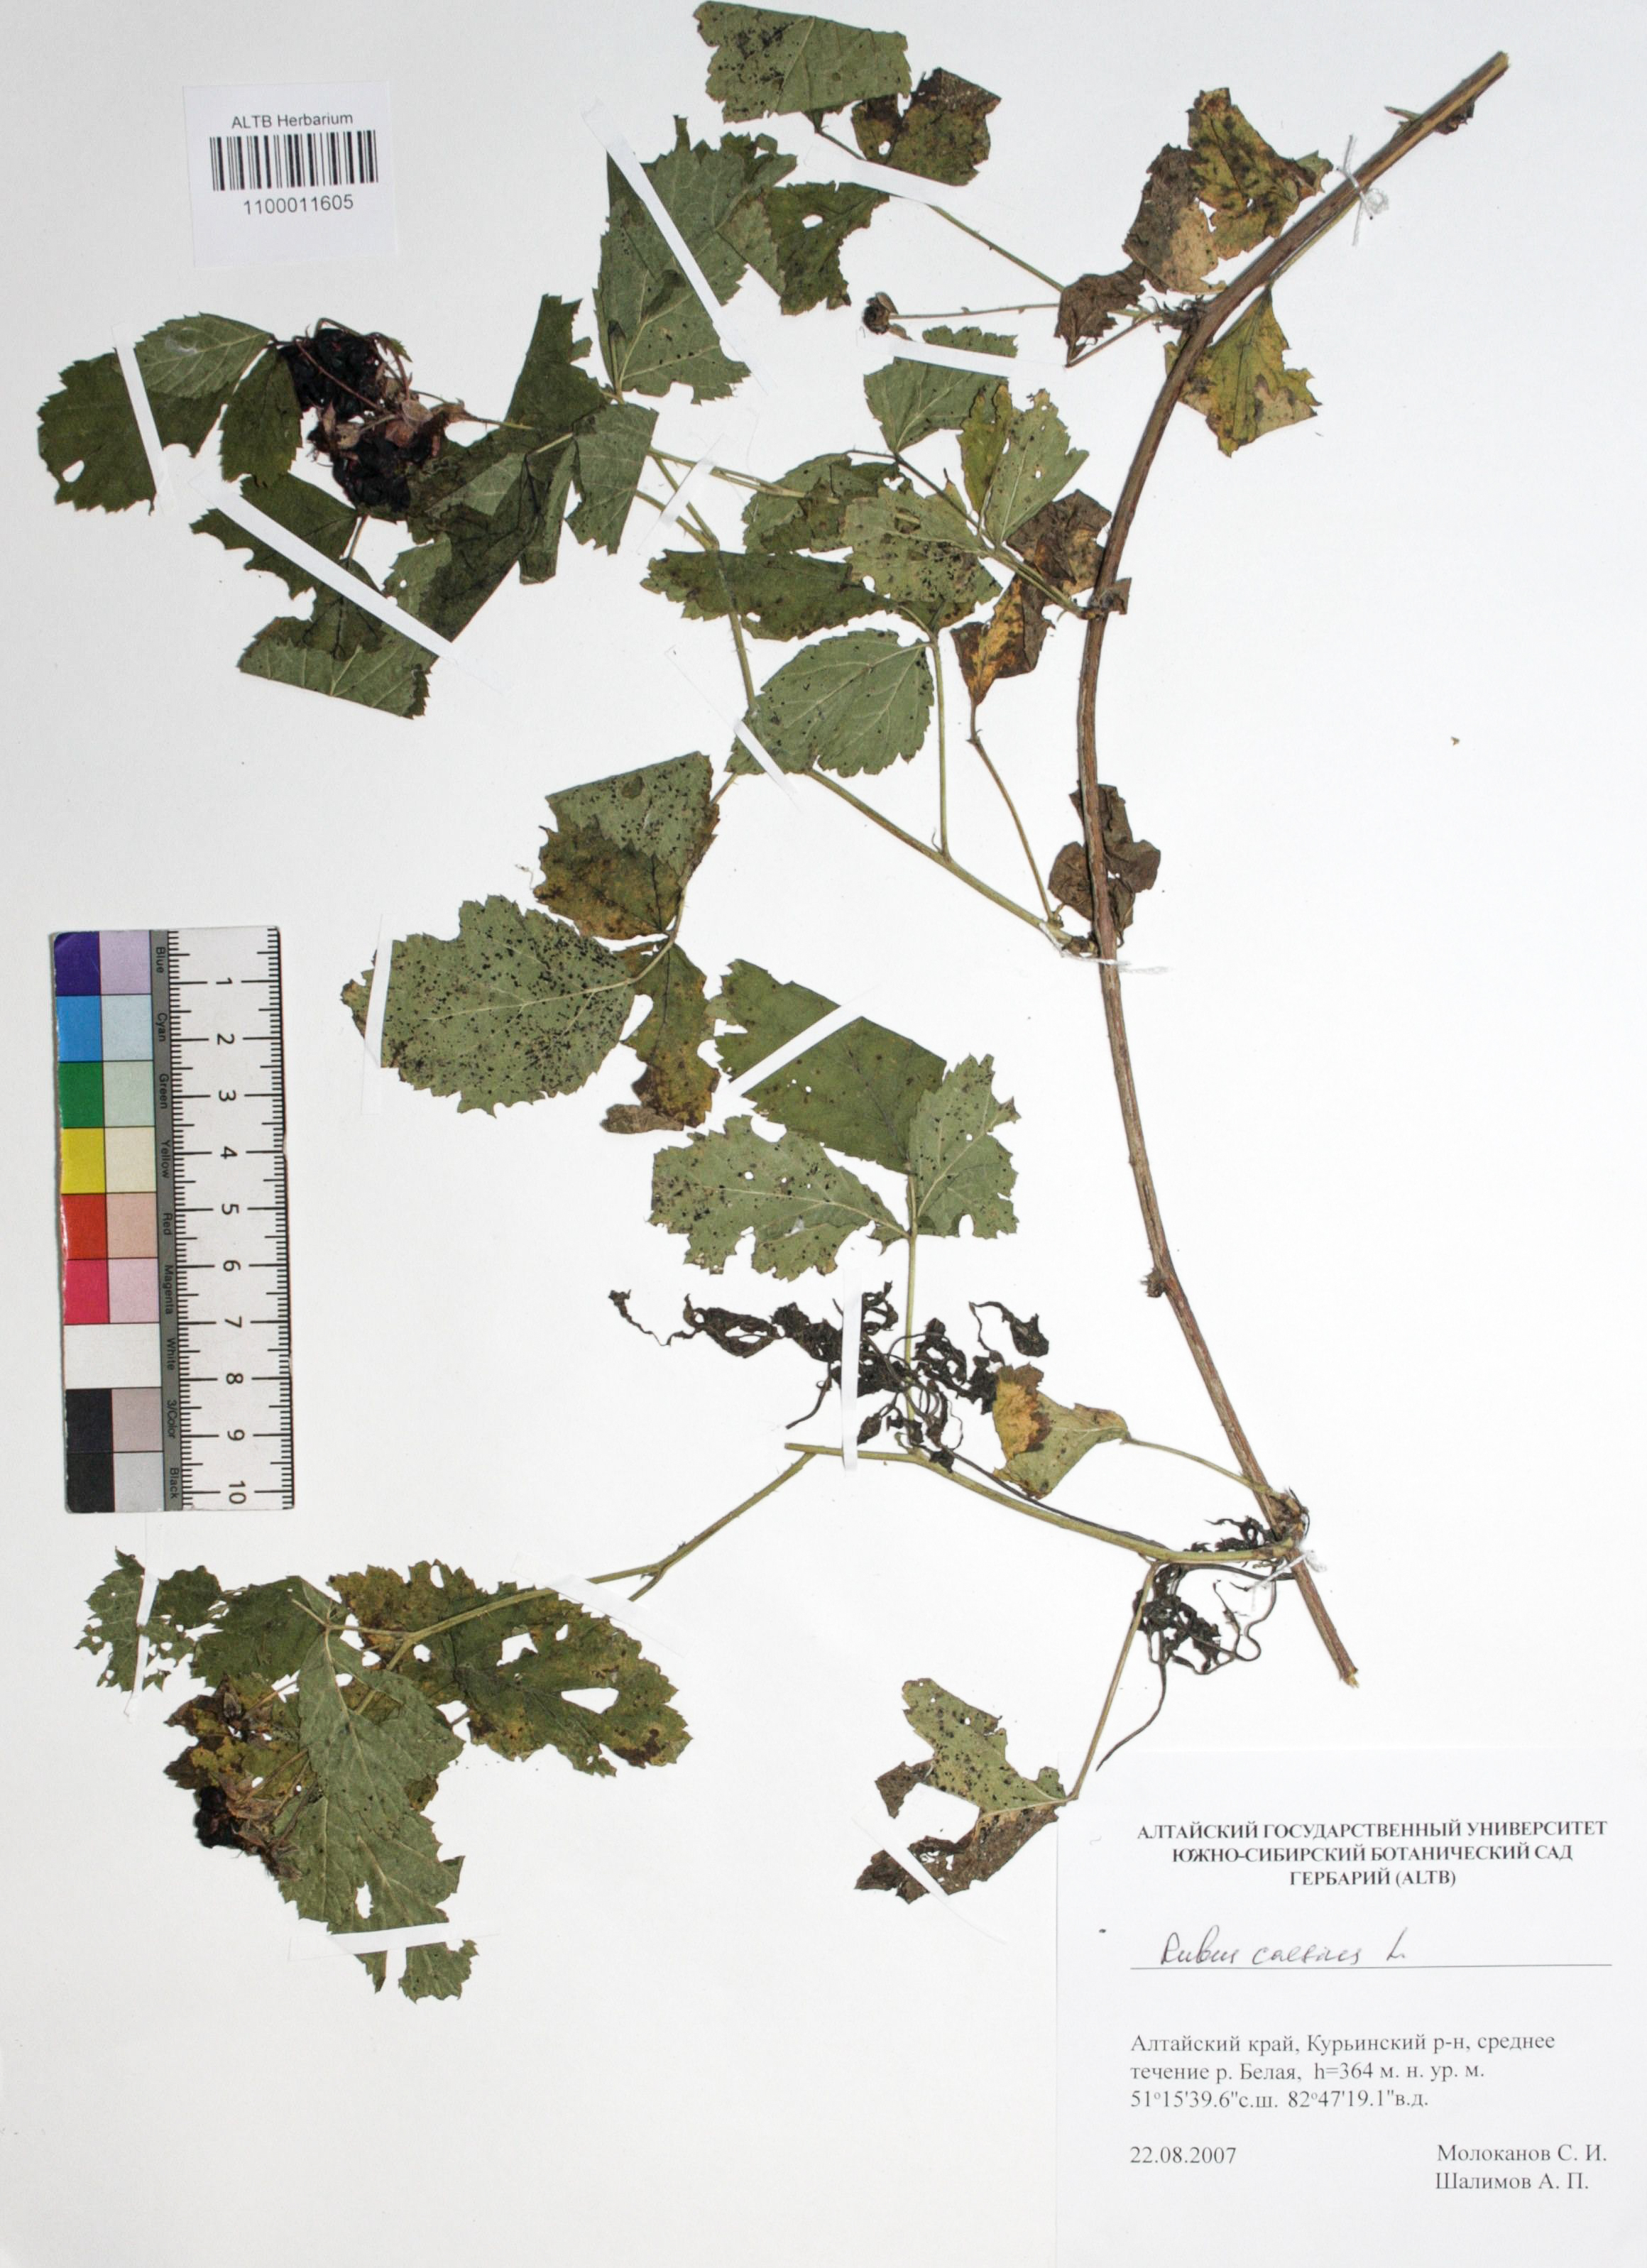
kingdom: Plantae
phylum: Tracheophyta
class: Magnoliopsida
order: Rosales
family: Rosaceae
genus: Rubus
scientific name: Rubus caesius
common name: Dewberry
